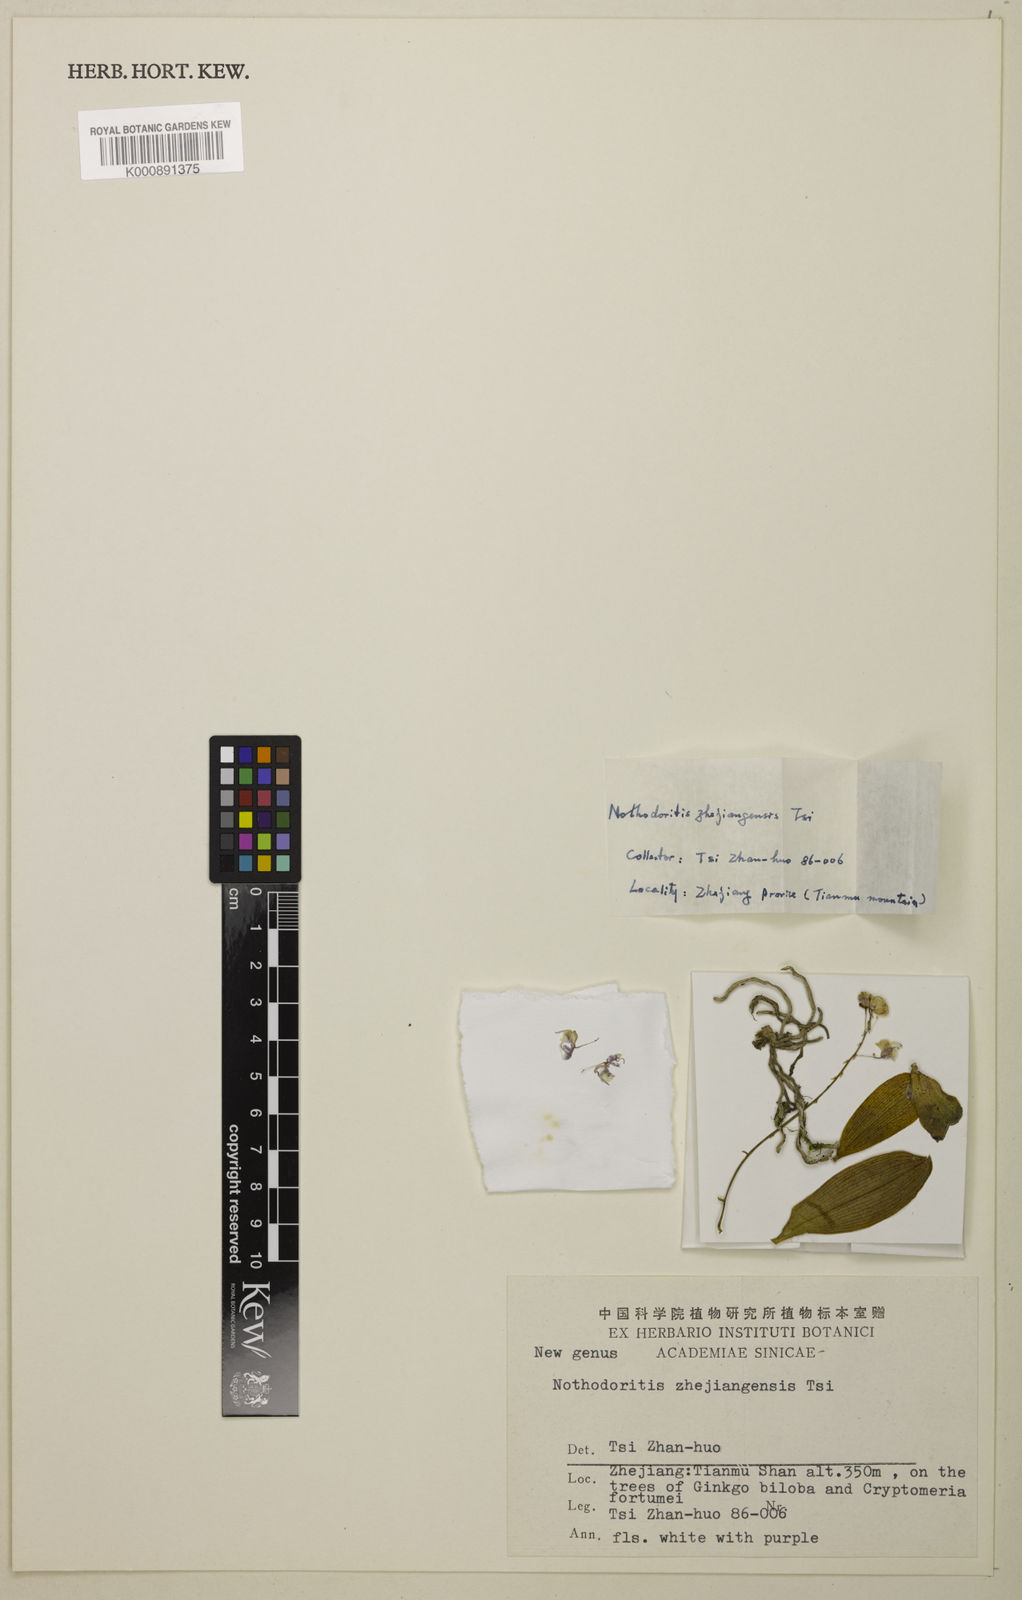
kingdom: Plantae
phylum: Tracheophyta
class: Liliopsida
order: Asparagales
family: Orchidaceae
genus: Phalaenopsis
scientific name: Phalaenopsis zhejiangensis
